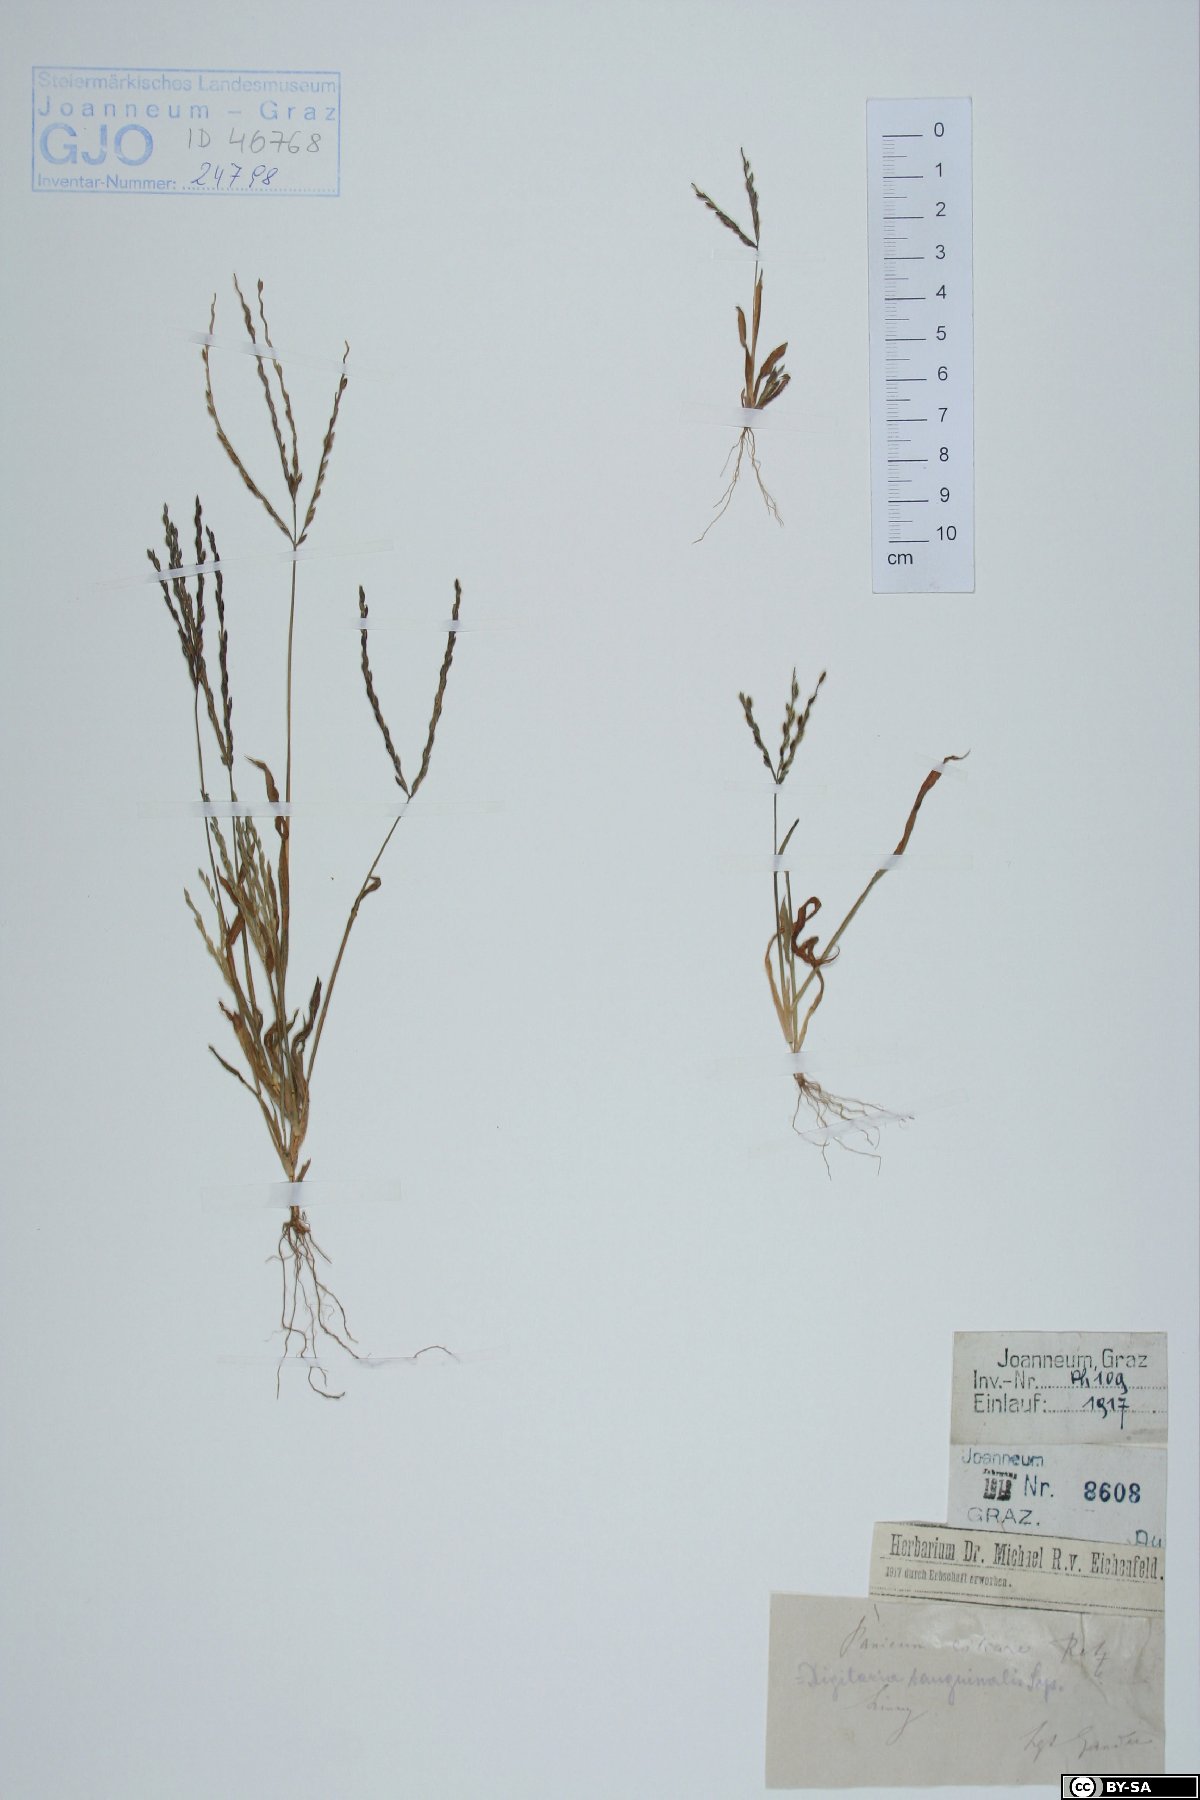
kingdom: Plantae
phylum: Tracheophyta
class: Liliopsida
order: Poales
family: Poaceae
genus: Digitaria
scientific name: Digitaria ciliaris
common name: Tropical finger-grass
